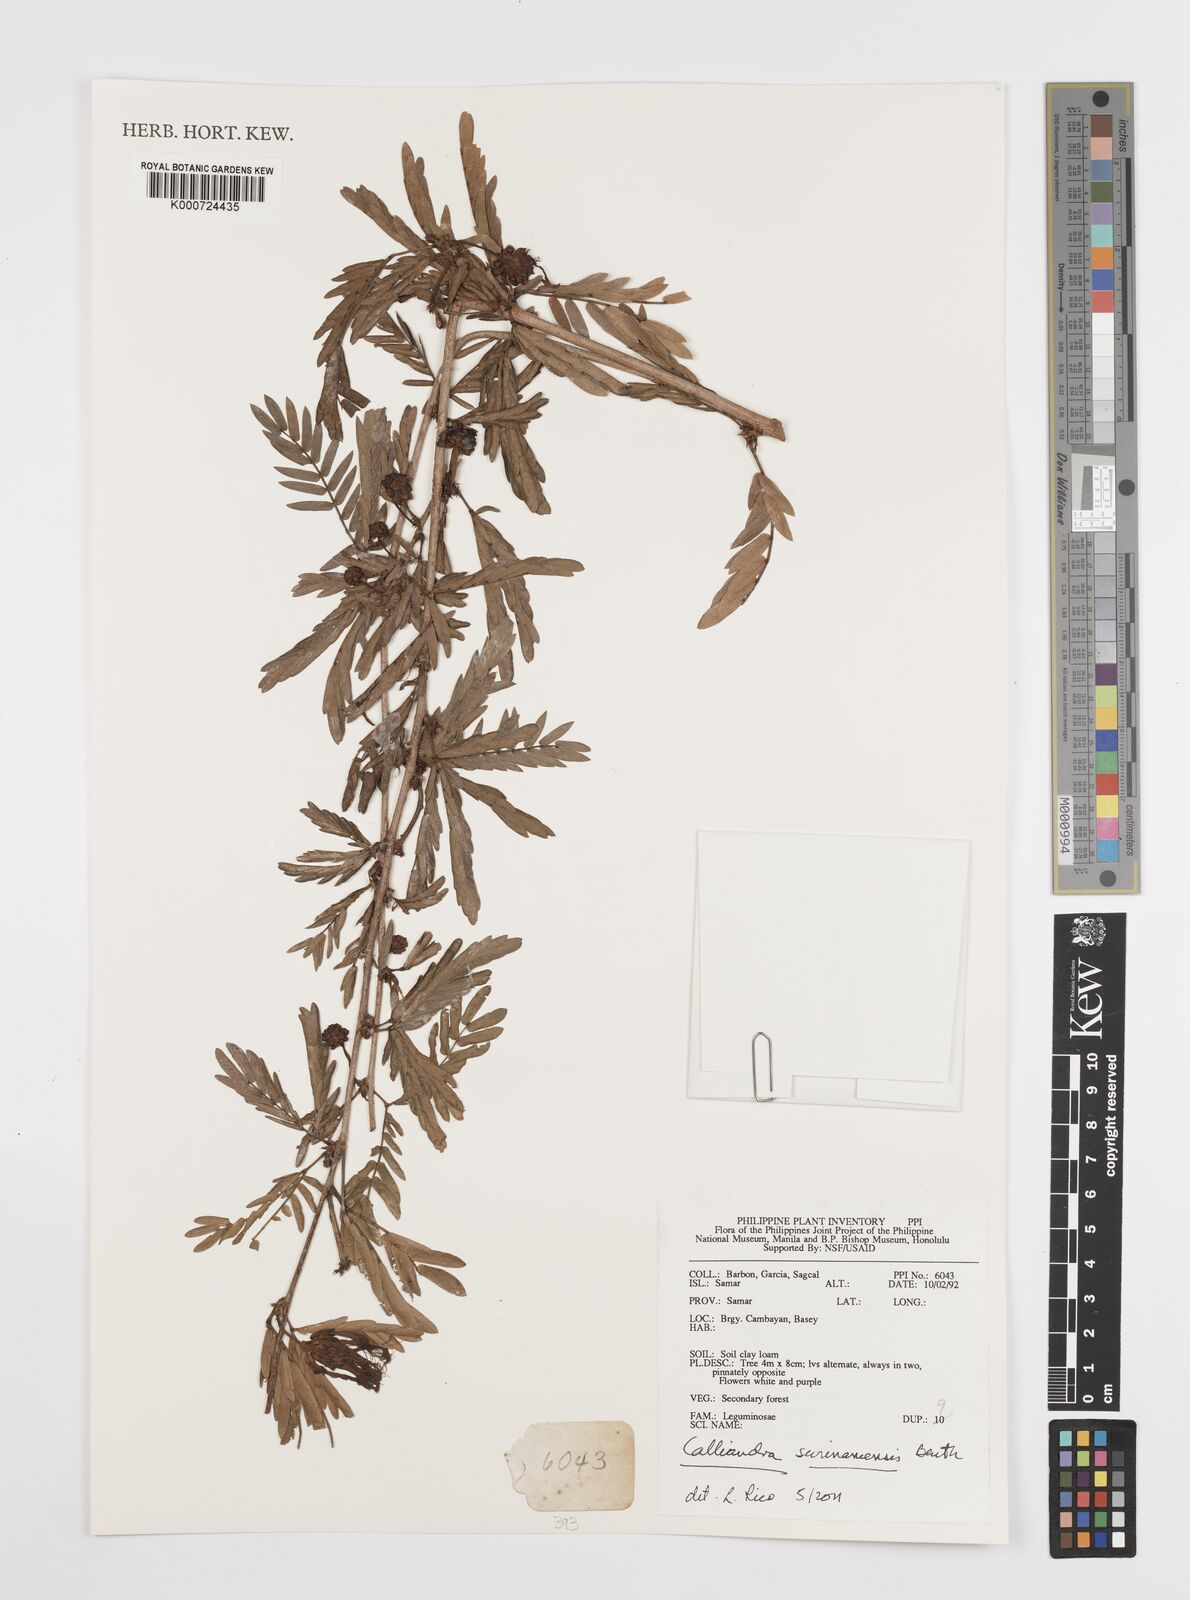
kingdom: Plantae
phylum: Tracheophyta
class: Magnoliopsida
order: Fabales
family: Fabaceae
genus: Calliandra
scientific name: Calliandra surinamensis
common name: Pink powder puff
